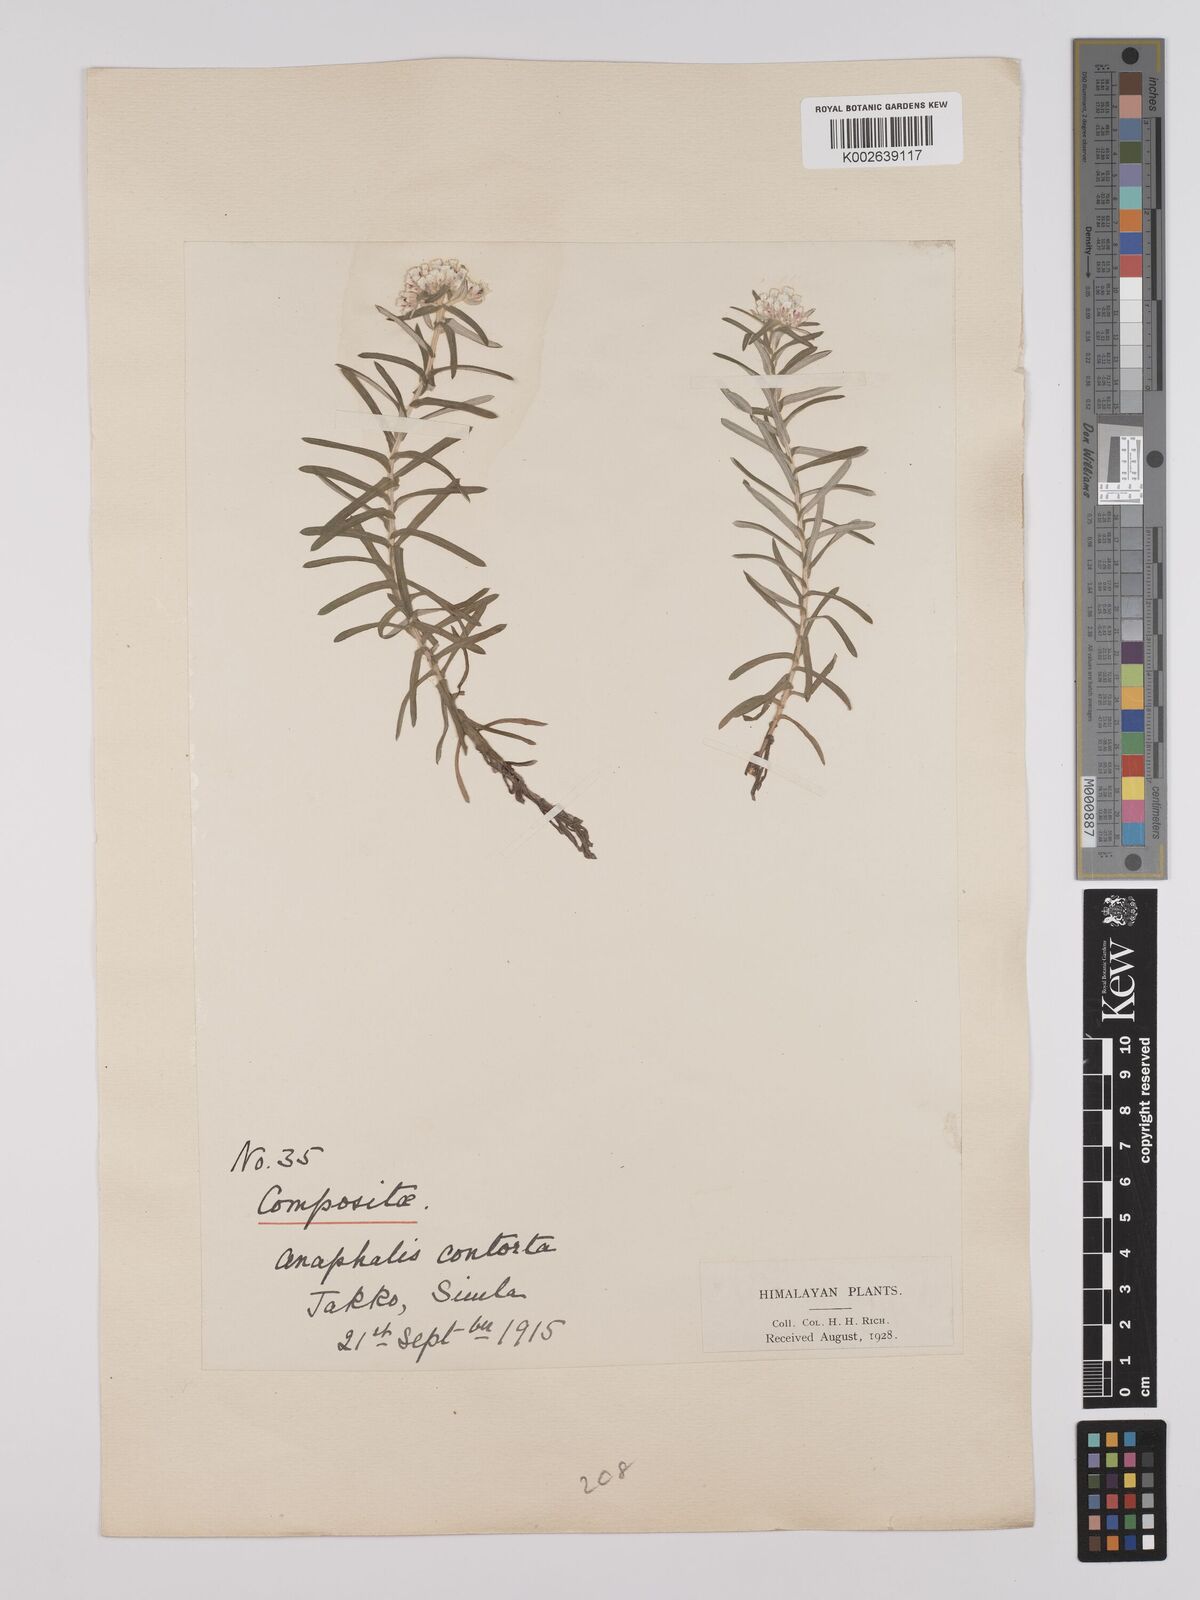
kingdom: Plantae
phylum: Tracheophyta
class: Magnoliopsida
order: Asterales
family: Asteraceae
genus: Anaphalis
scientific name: Anaphalis contorta
